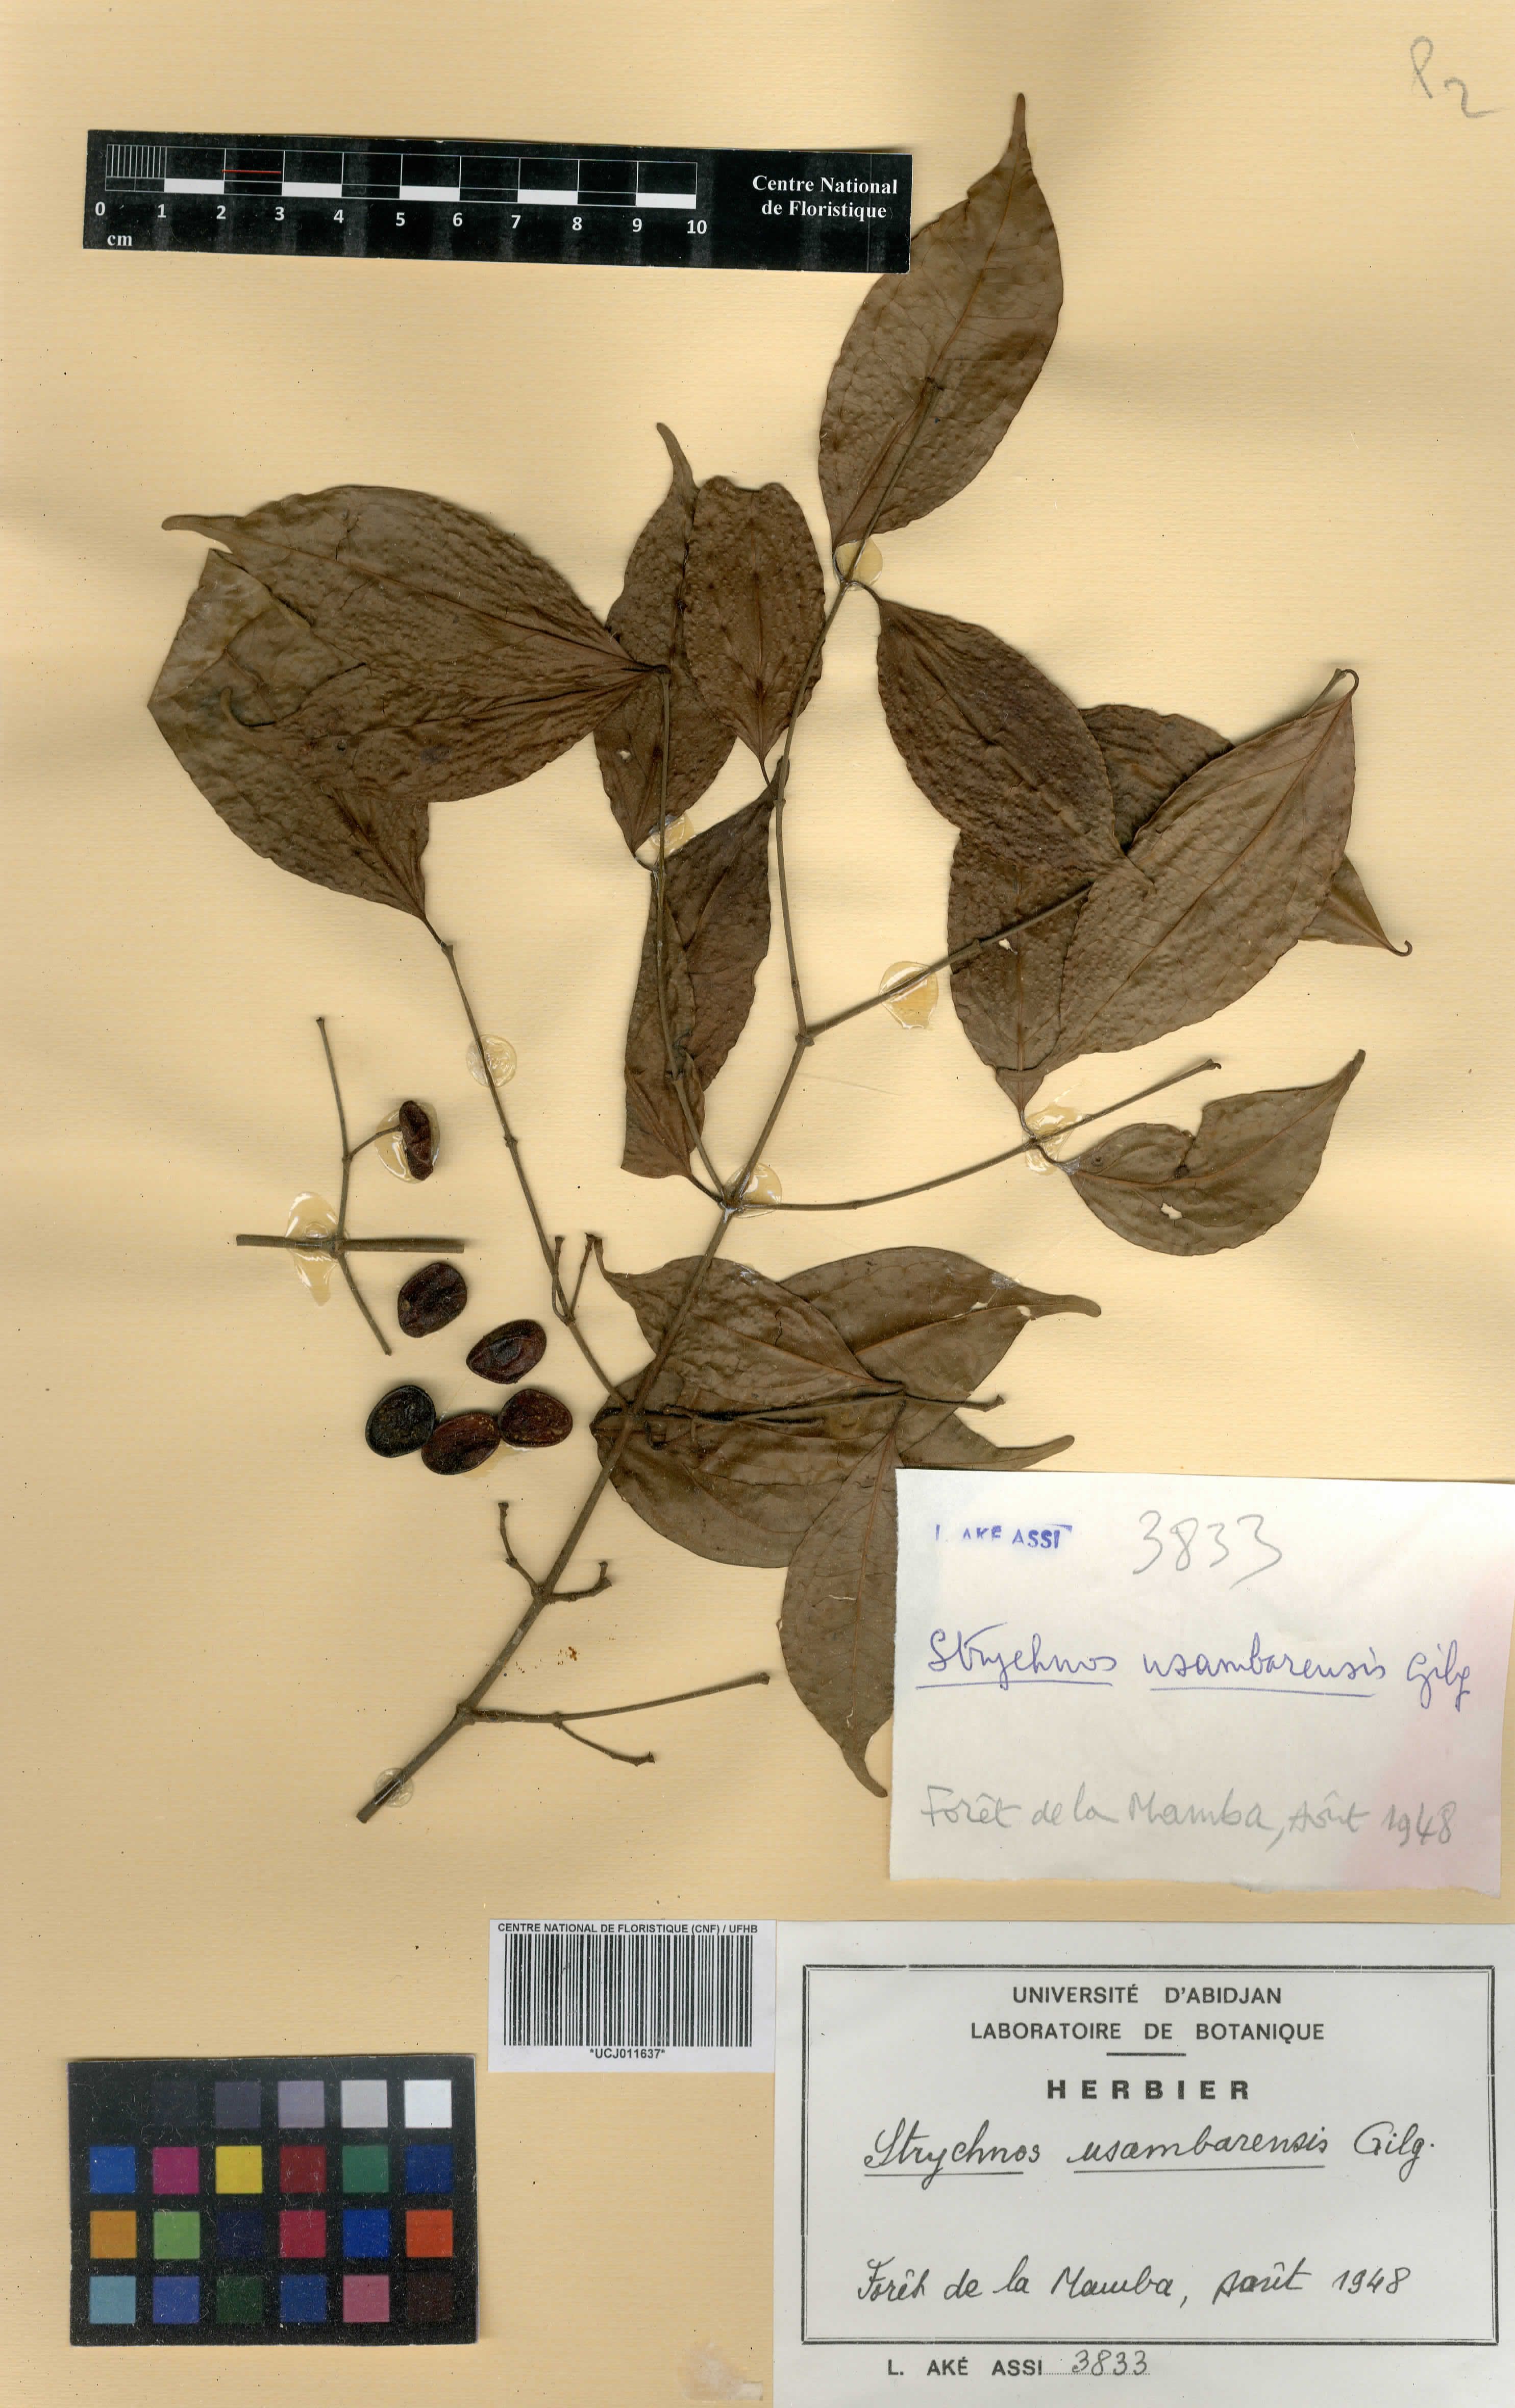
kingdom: Plantae
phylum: Tracheophyta
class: Magnoliopsida
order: Gentianales
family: Loganiaceae
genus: Strychnos
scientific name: Strychnos usambarensis
